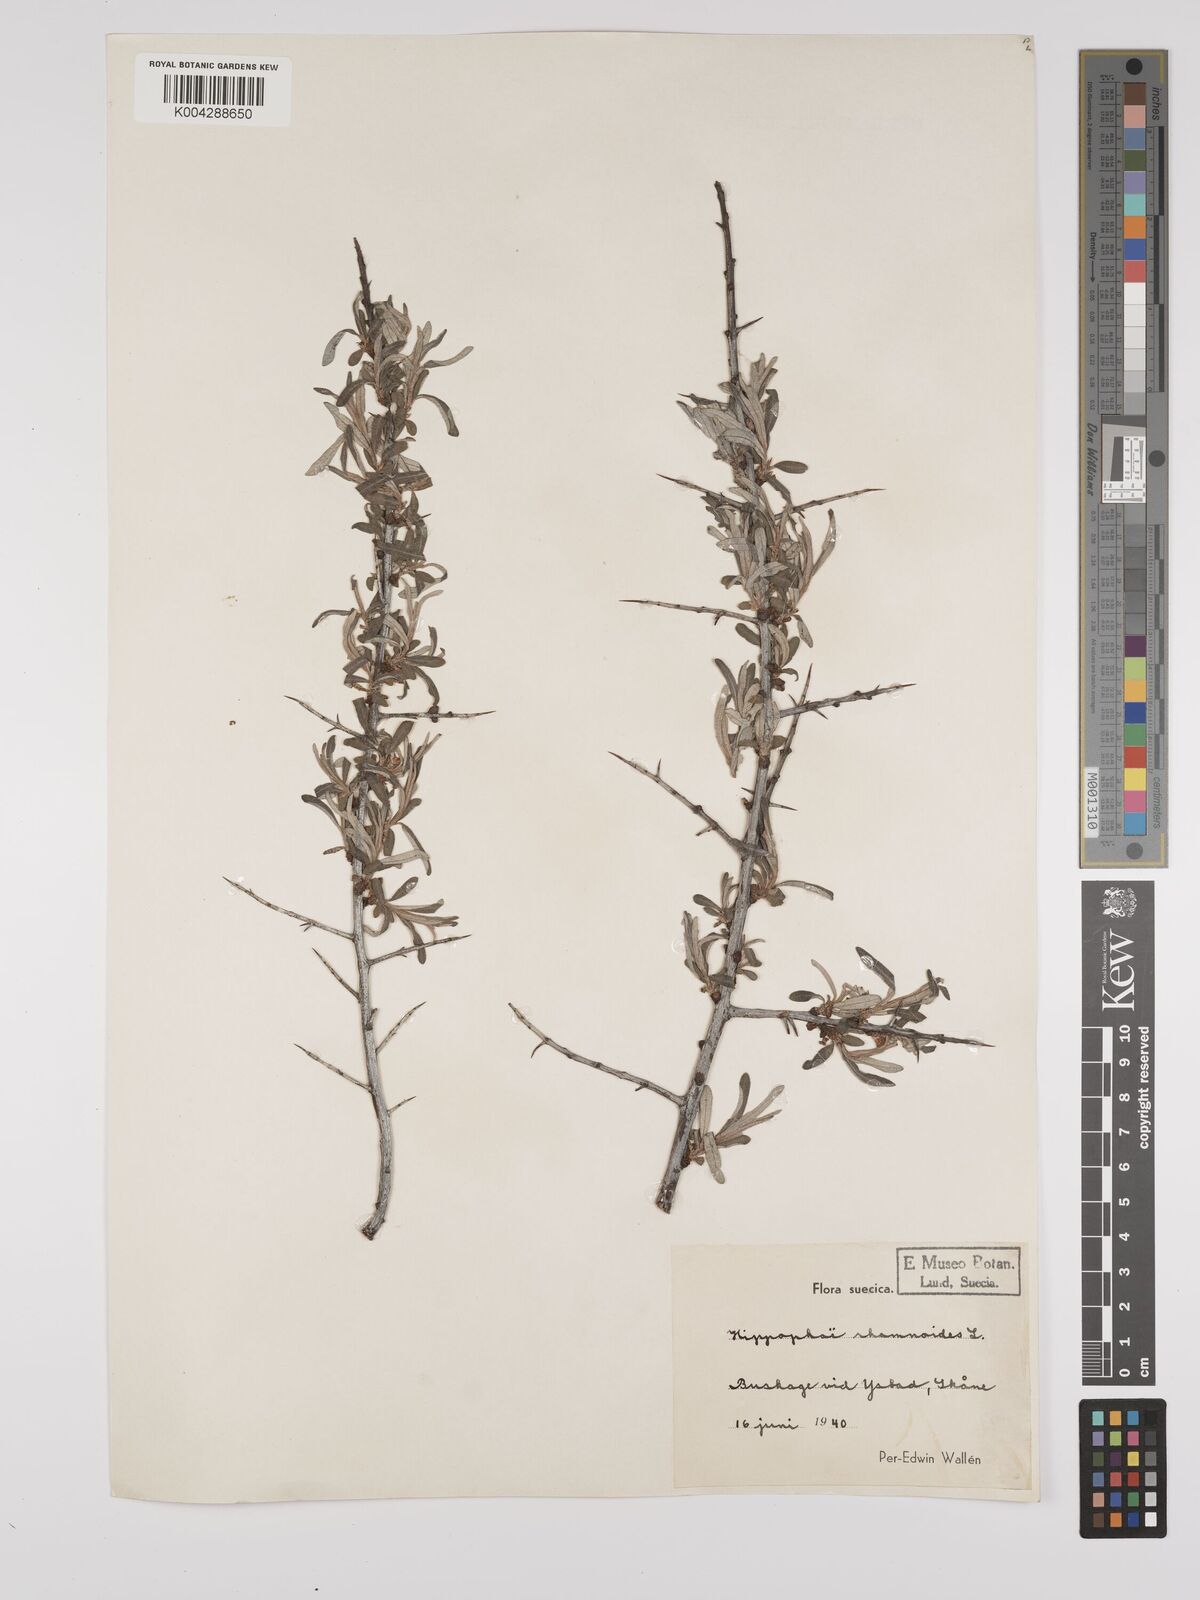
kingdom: Plantae
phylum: Tracheophyta
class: Magnoliopsida
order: Rosales
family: Elaeagnaceae
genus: Hippophae
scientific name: Hippophae rhamnoides
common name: Sea-buckthorn
